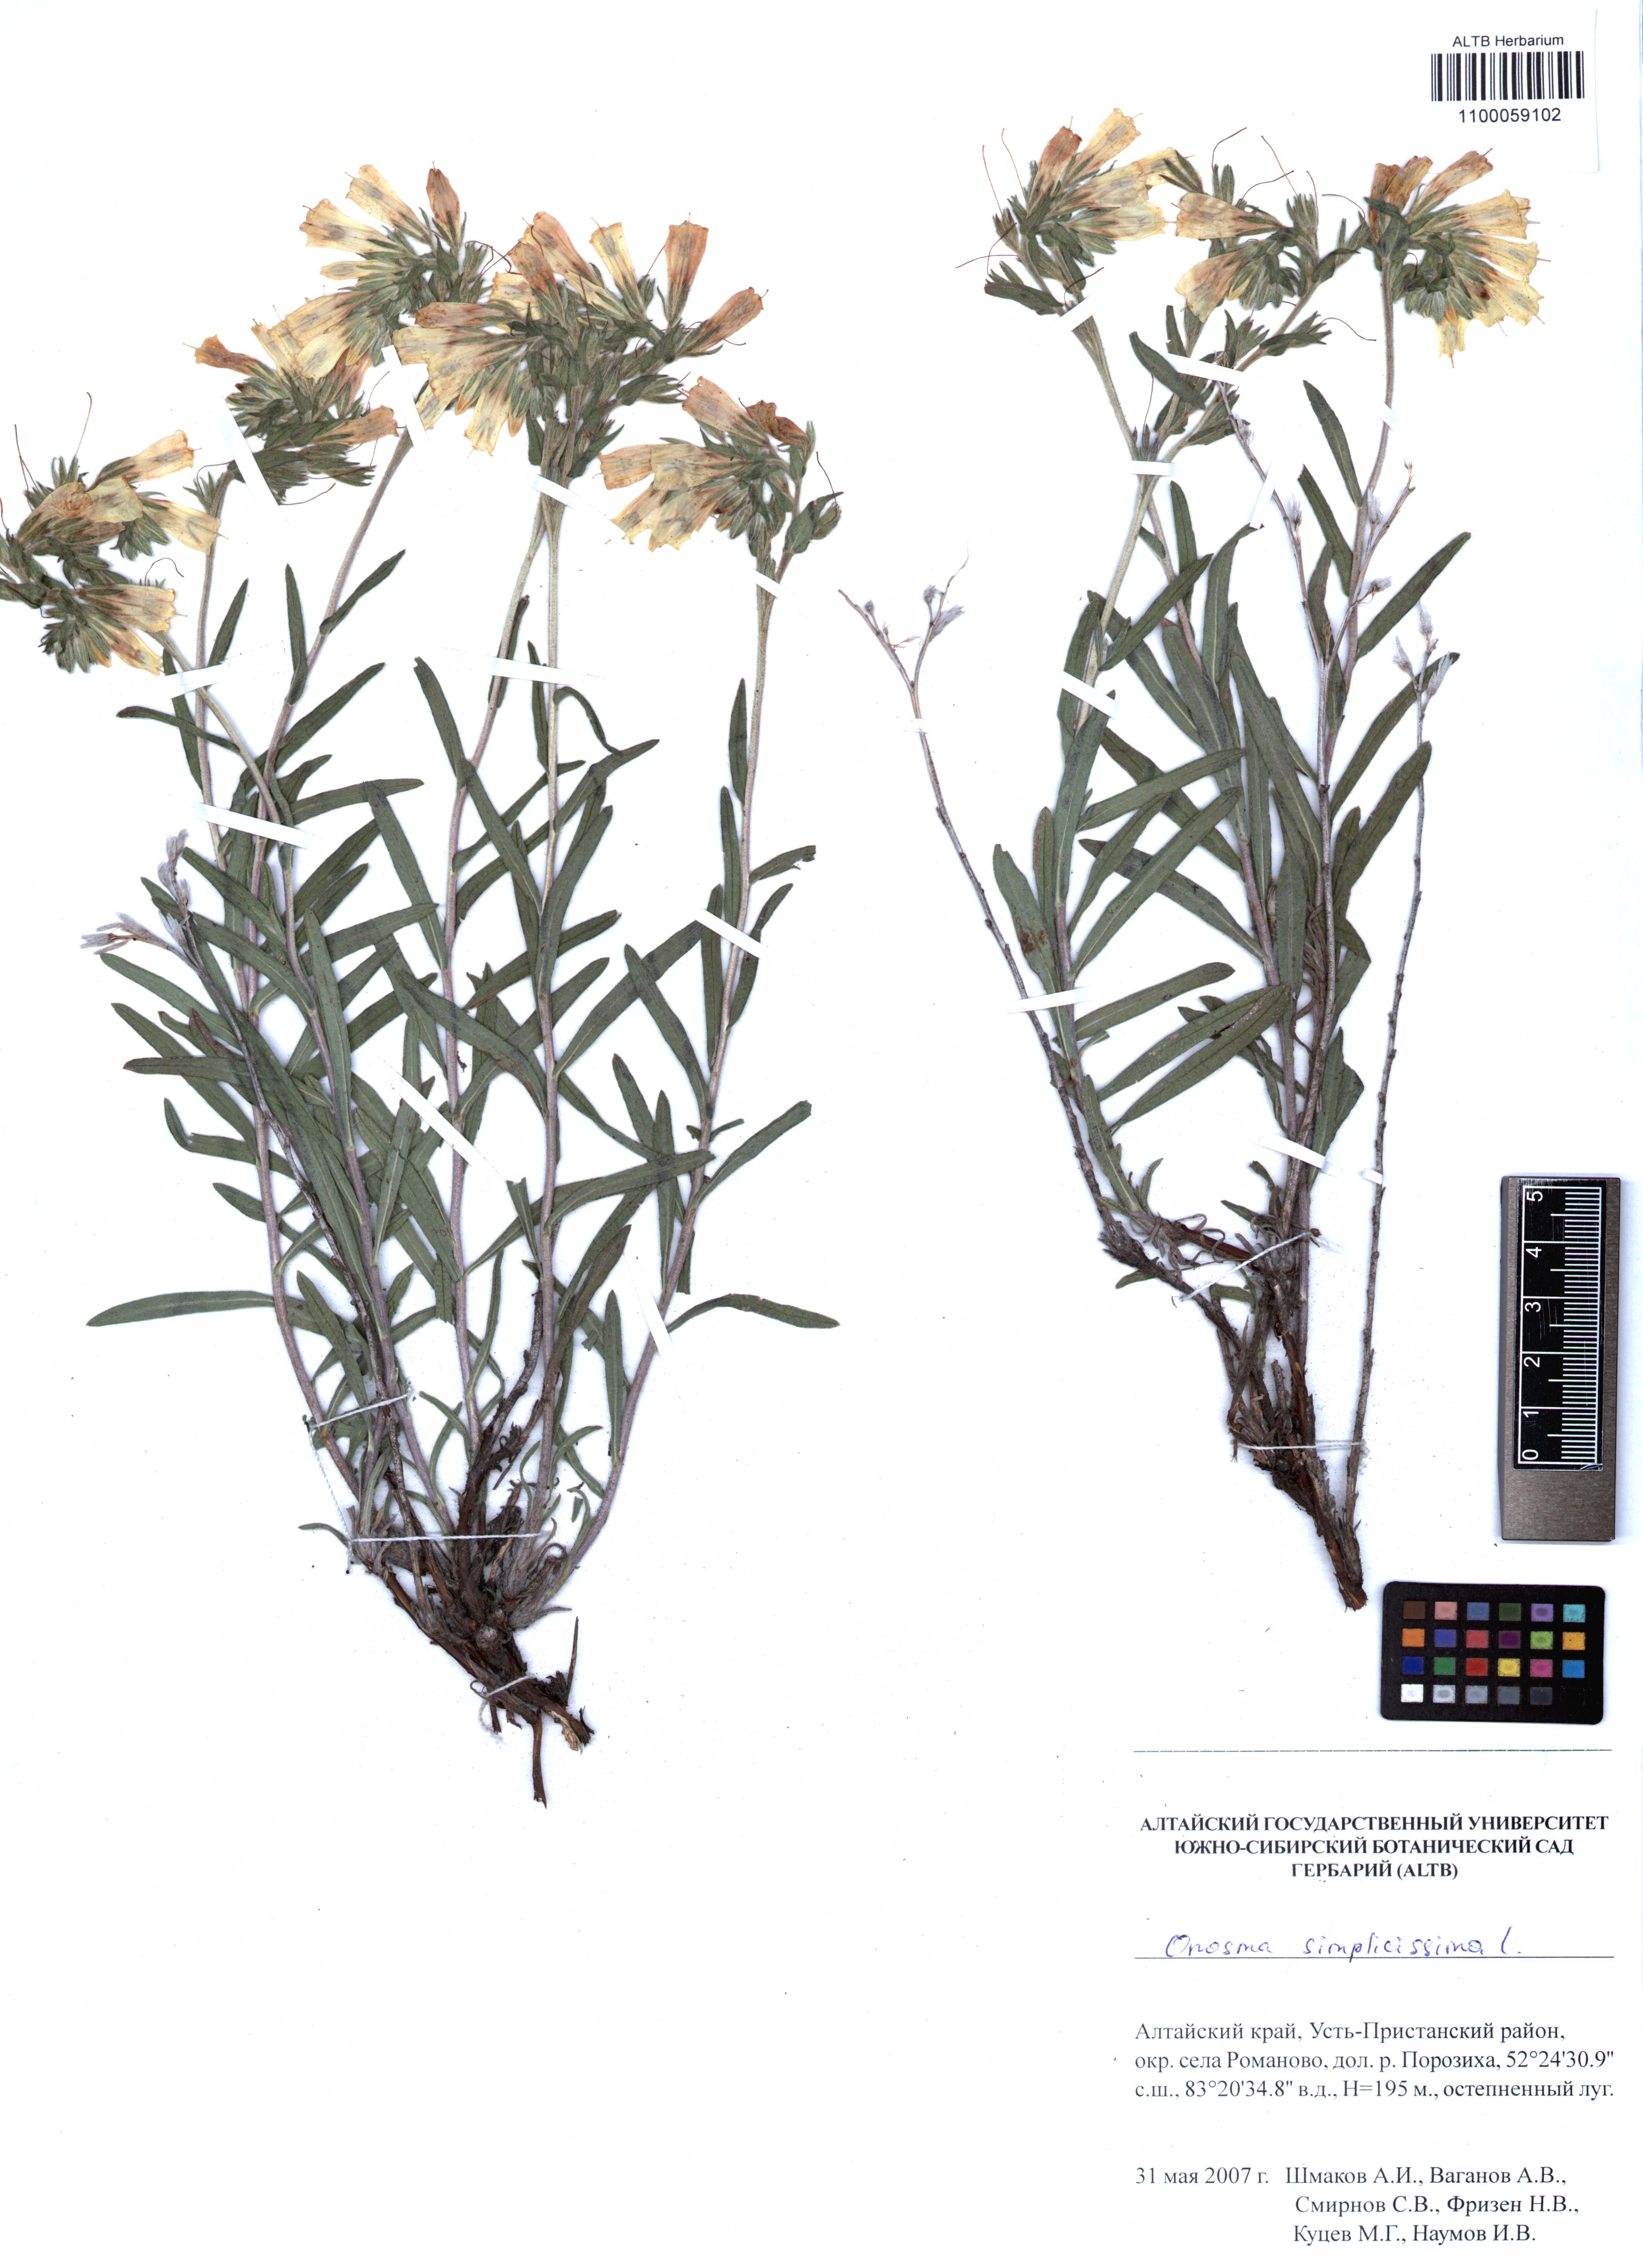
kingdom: Plantae
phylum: Tracheophyta
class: Magnoliopsida
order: Boraginales
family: Boraginaceae
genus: Onosma
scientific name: Onosma simplicissima
